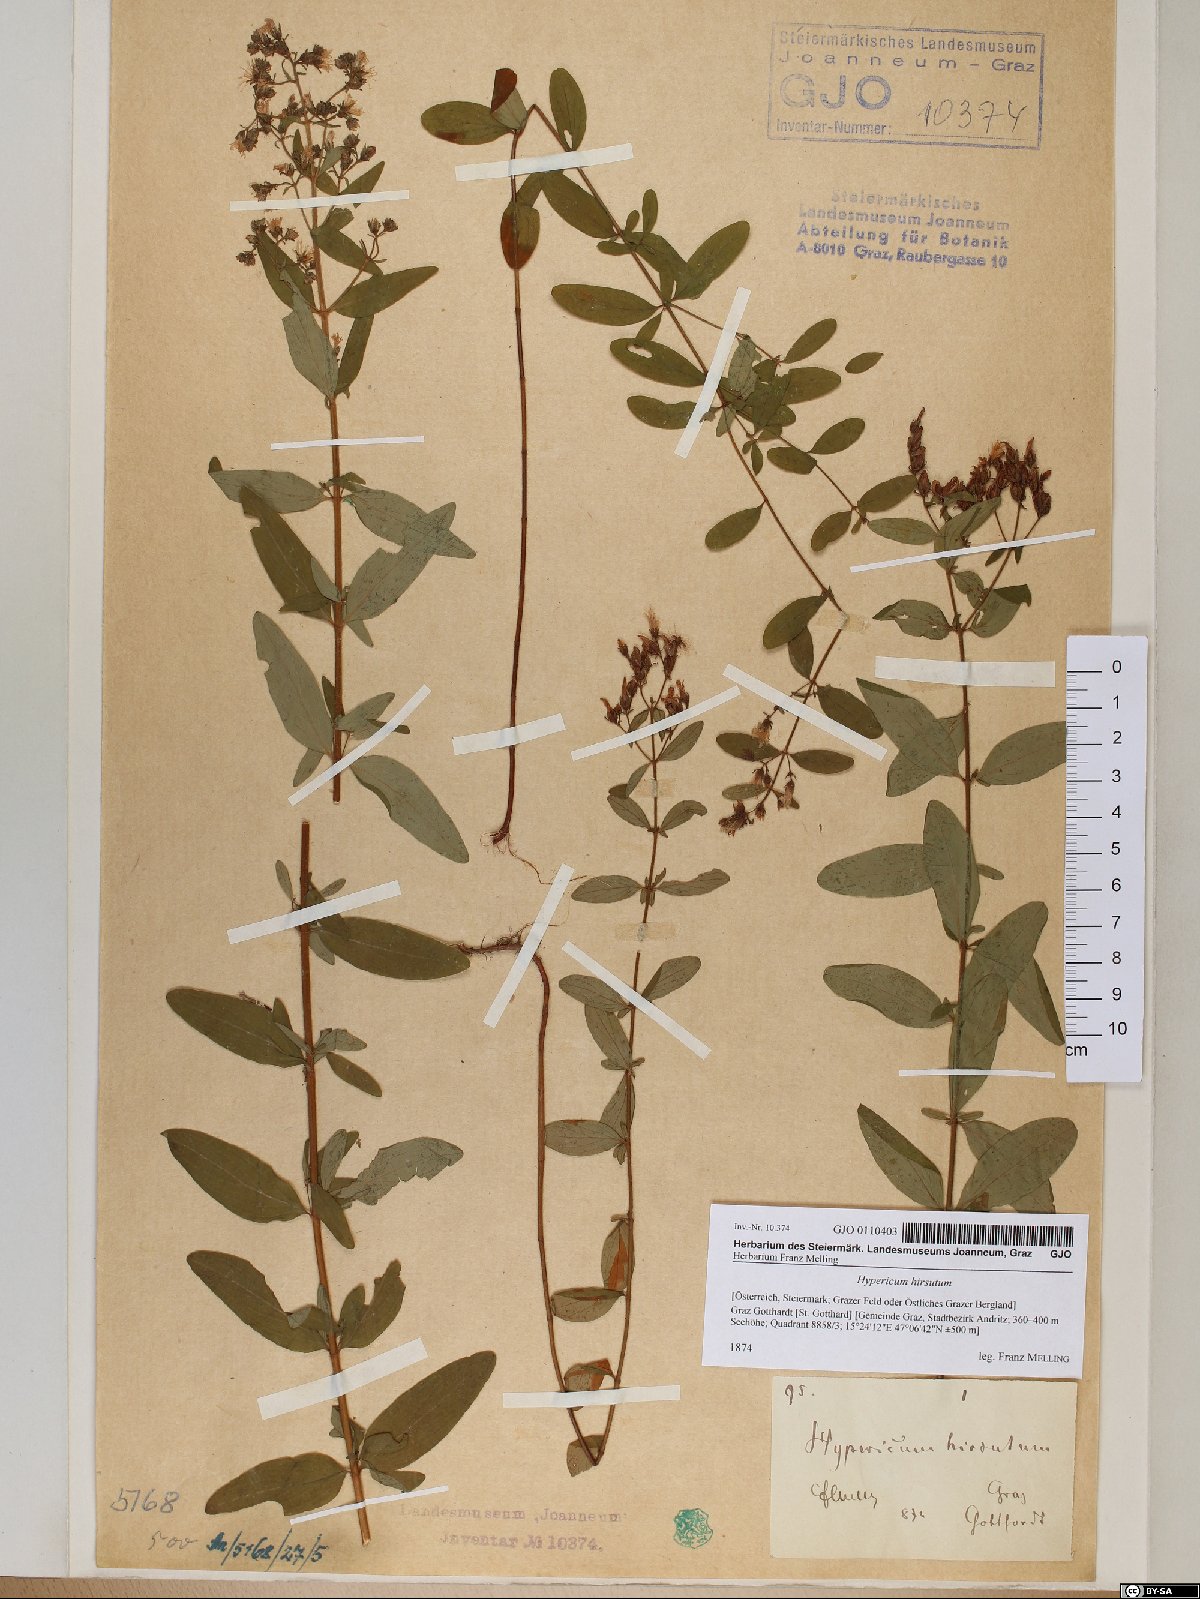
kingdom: Plantae
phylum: Tracheophyta
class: Magnoliopsida
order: Malpighiales
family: Hypericaceae
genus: Hypericum
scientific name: Hypericum hirsutum
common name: Hairy st. john's-wort
